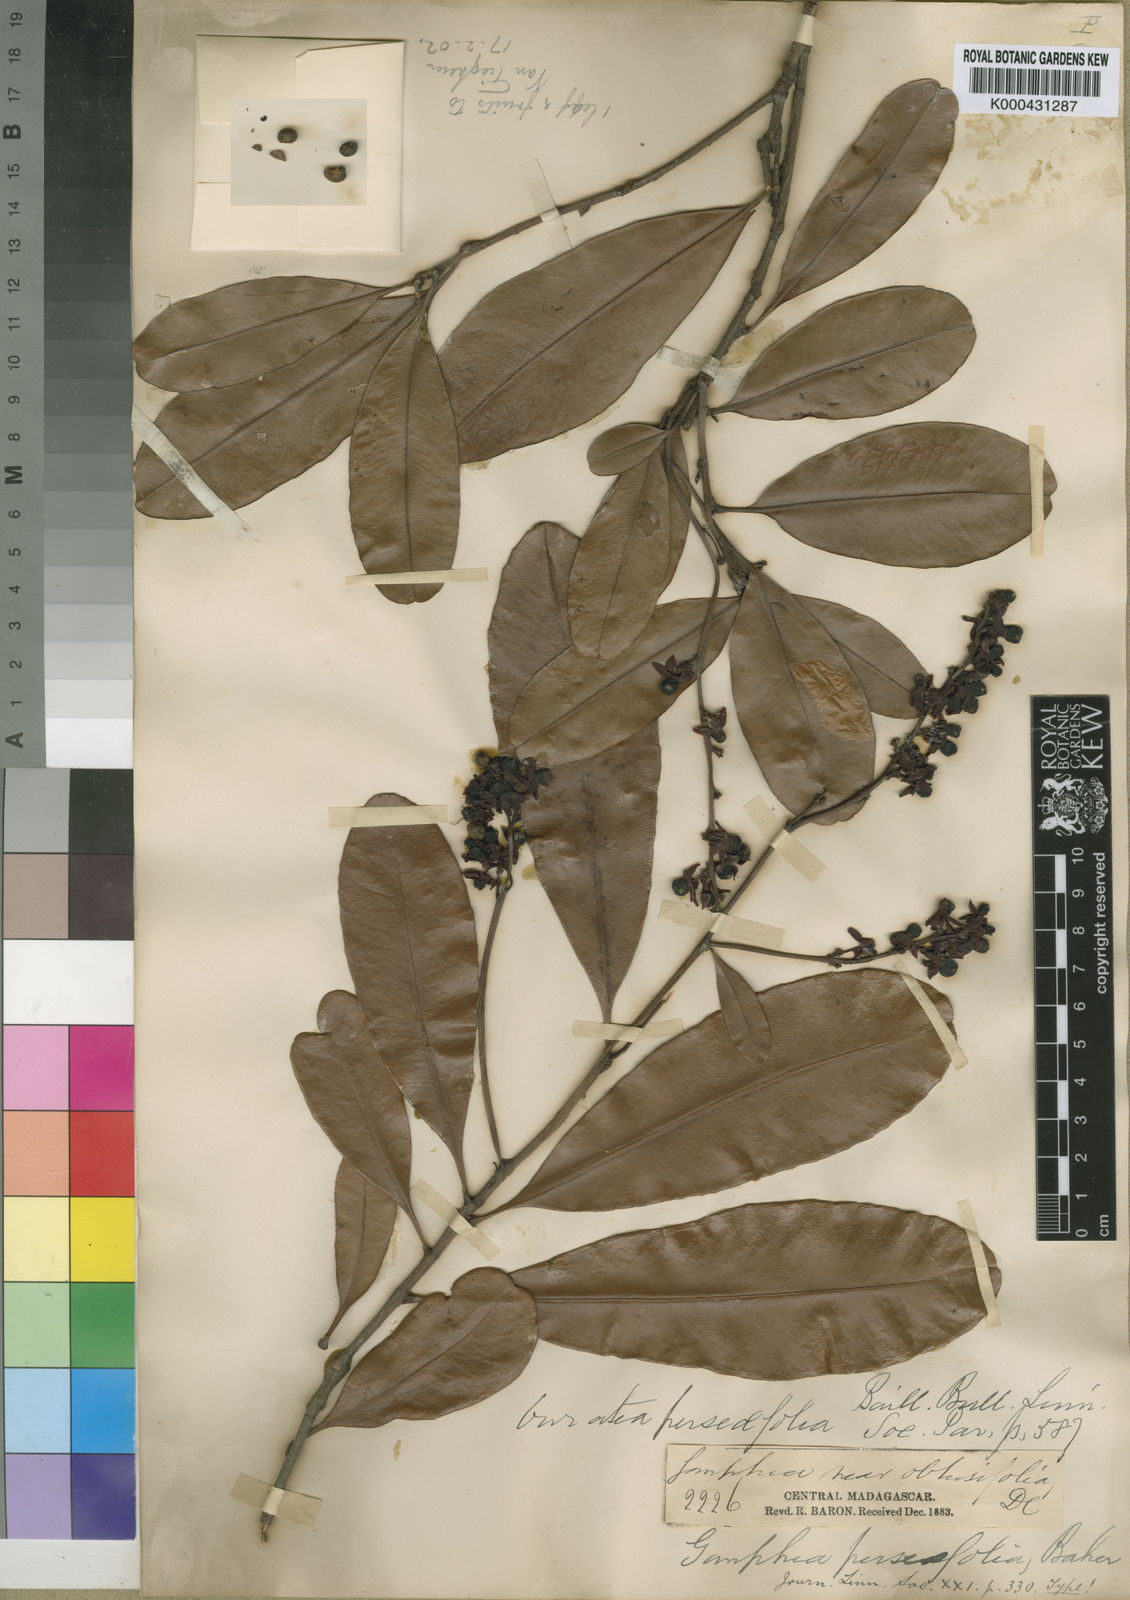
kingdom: Plantae
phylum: Tracheophyta
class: Magnoliopsida
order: Malpighiales
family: Ochnaceae
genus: Gomphia
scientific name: Gomphia obtusifolia
